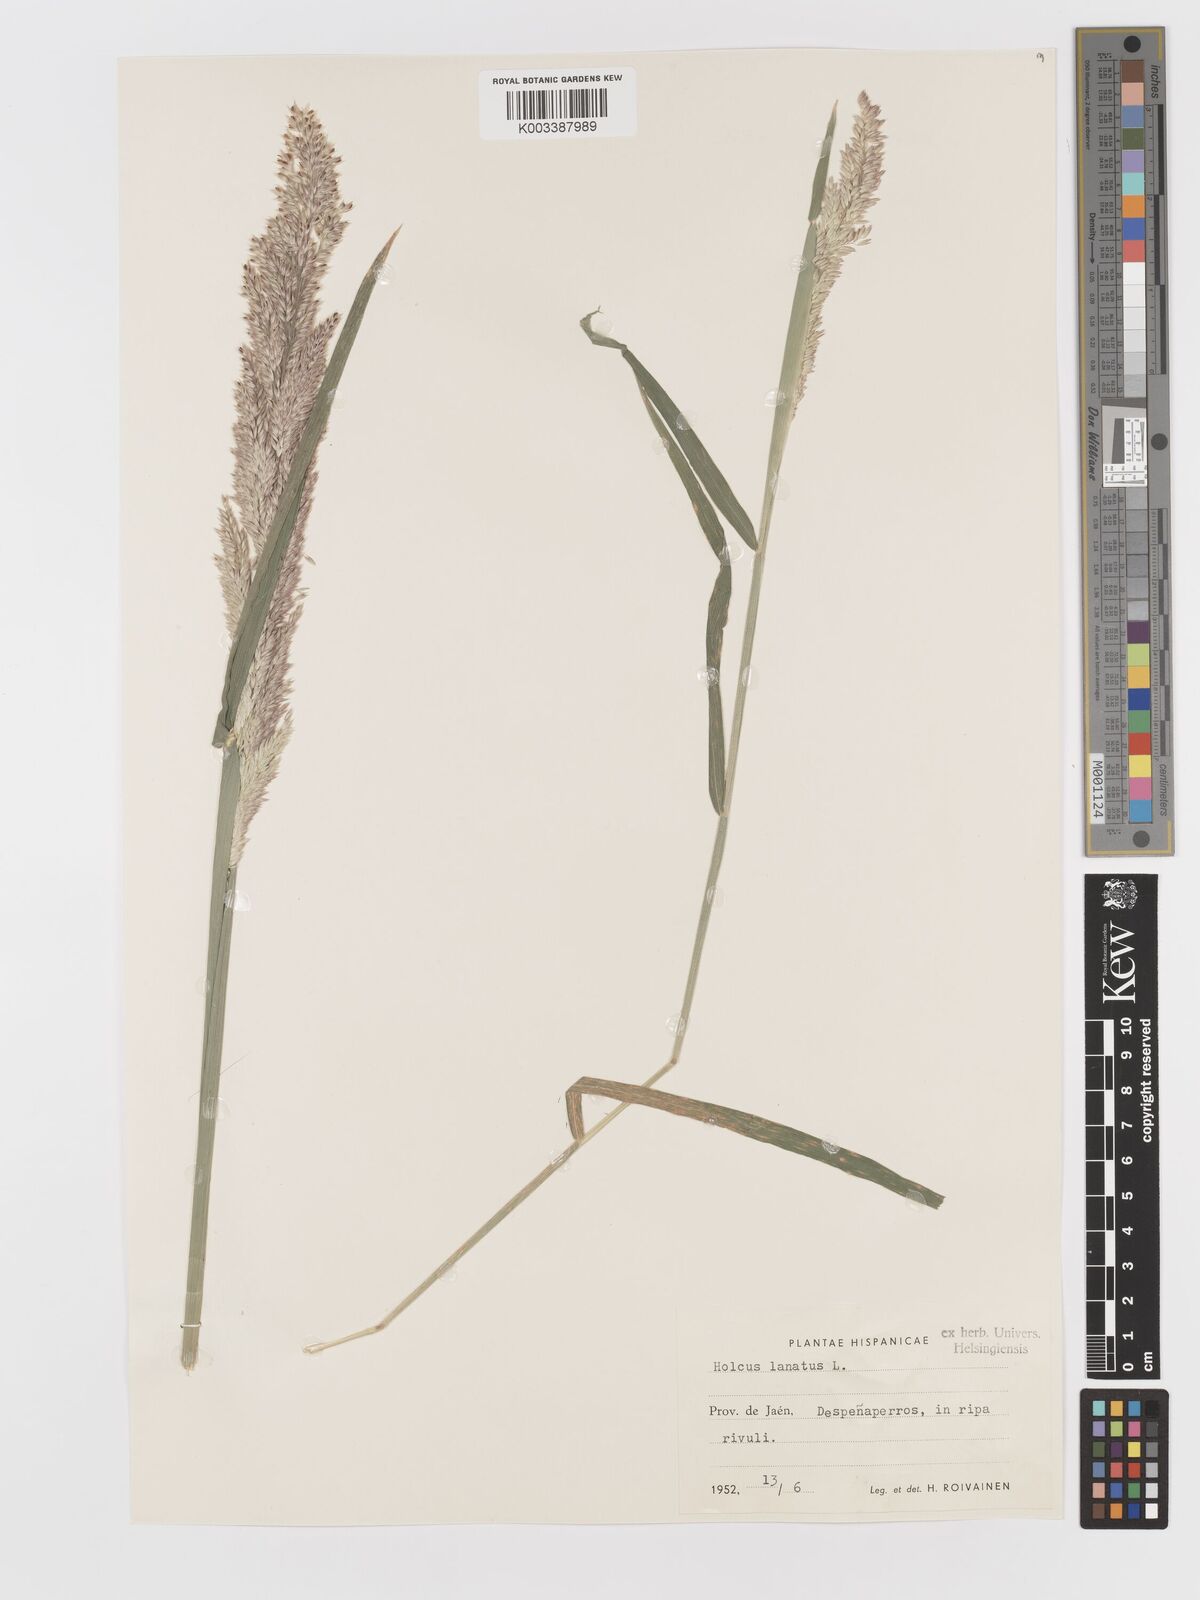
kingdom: Plantae
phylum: Tracheophyta
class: Liliopsida
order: Poales
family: Poaceae
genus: Holcus
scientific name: Holcus lanatus
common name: Yorkshire-fog
